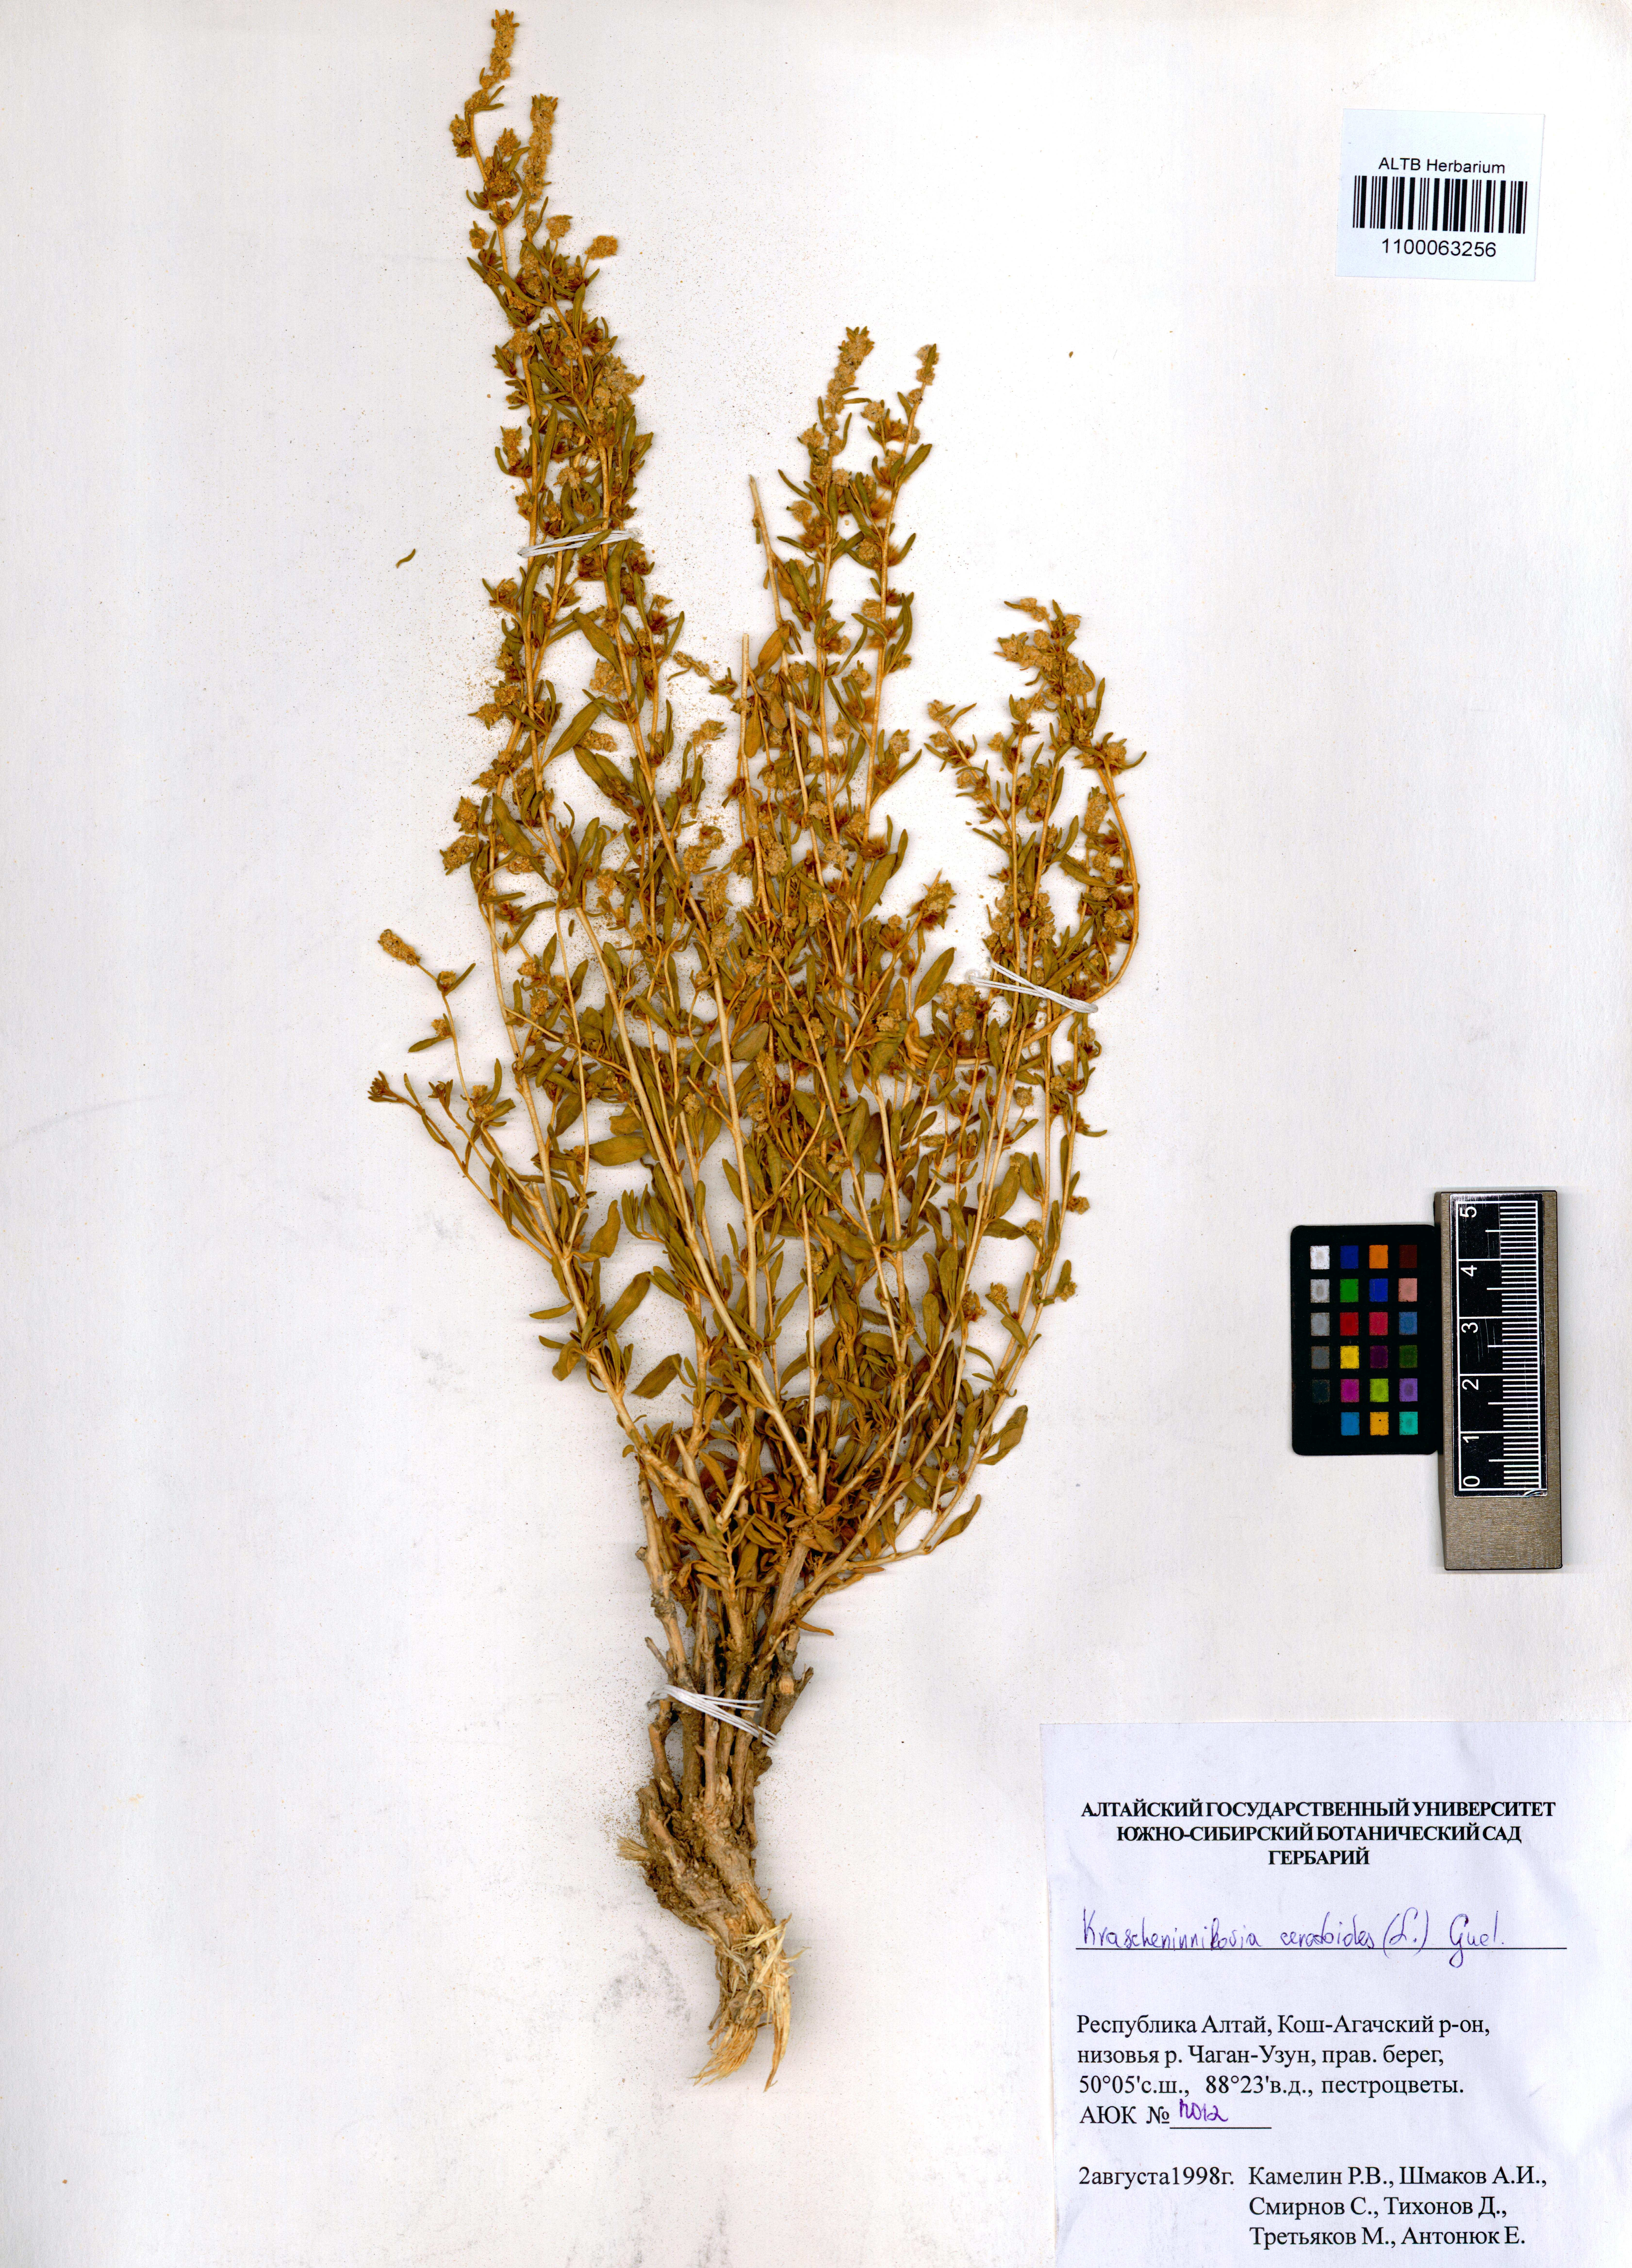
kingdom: Plantae
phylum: Tracheophyta
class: Magnoliopsida
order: Caryophyllales
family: Amaranthaceae
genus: Krascheninnikovia
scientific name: Krascheninnikovia ceratoides
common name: Pamirian winterfat
